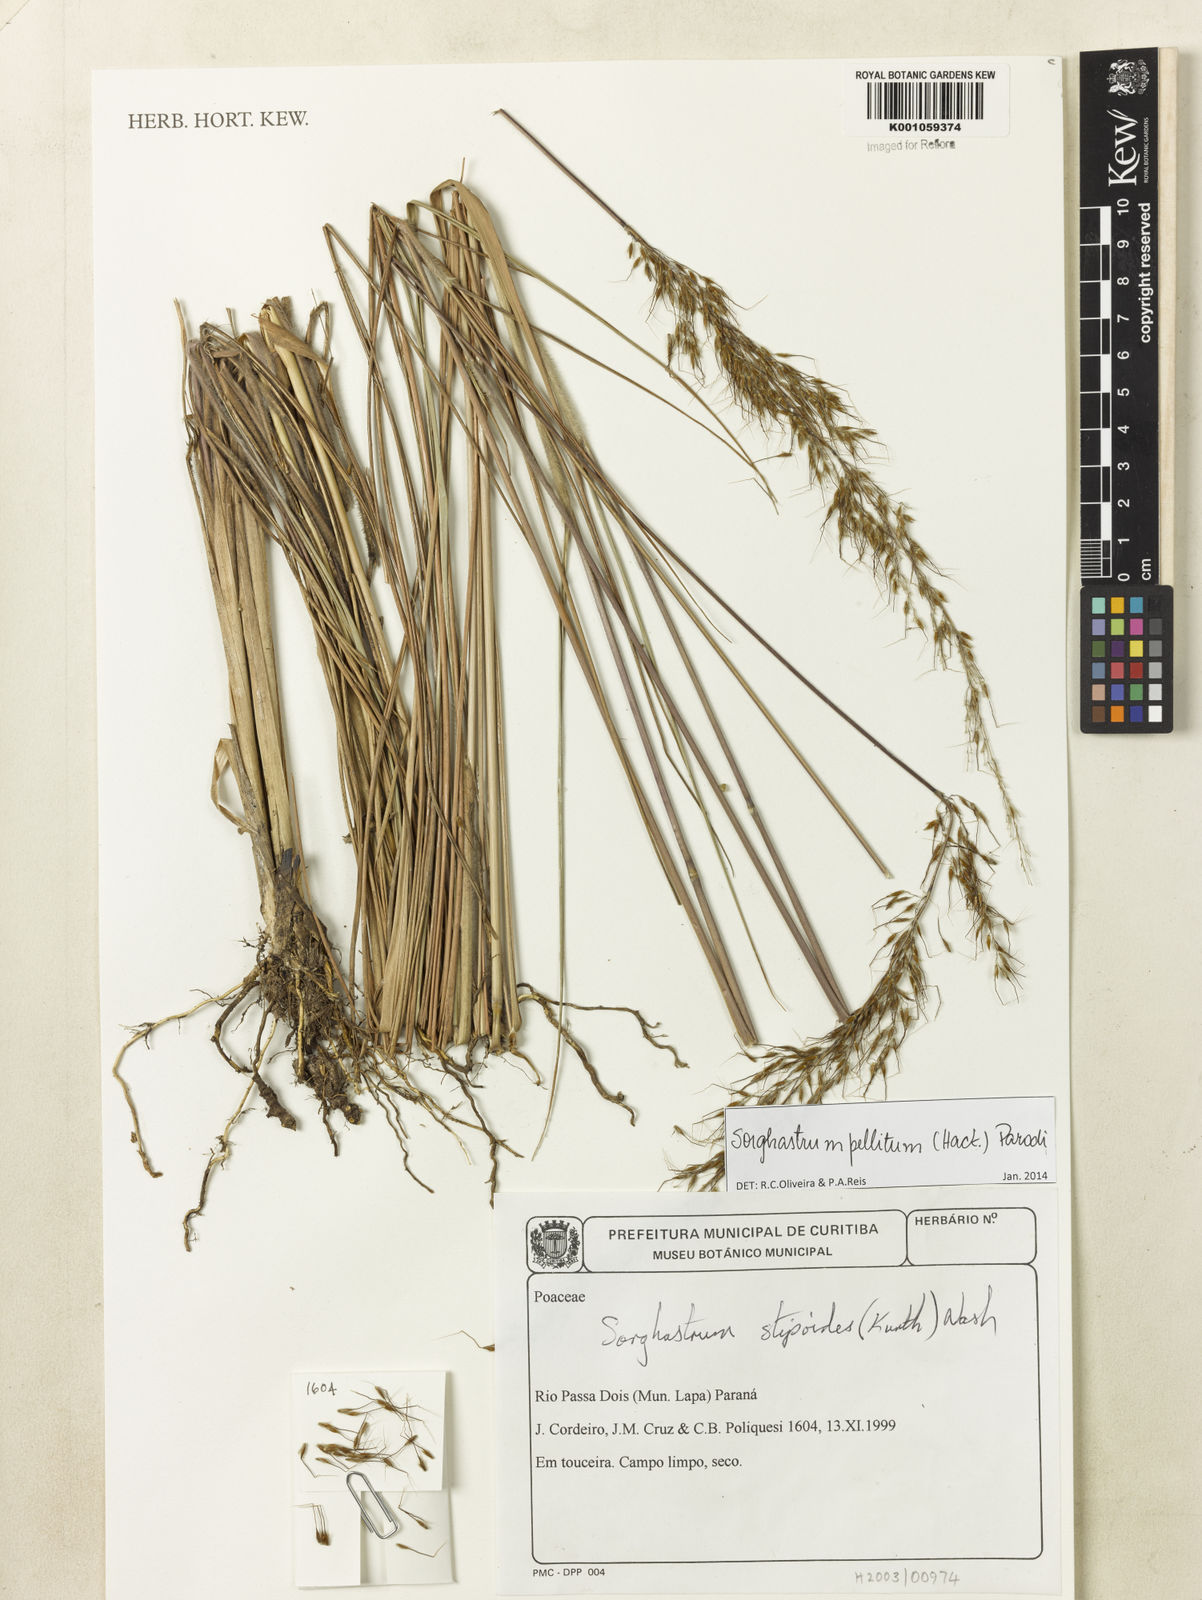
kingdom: Plantae
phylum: Tracheophyta
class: Liliopsida
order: Poales
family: Poaceae
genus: Sorghastrum
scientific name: Sorghastrum pellitum
